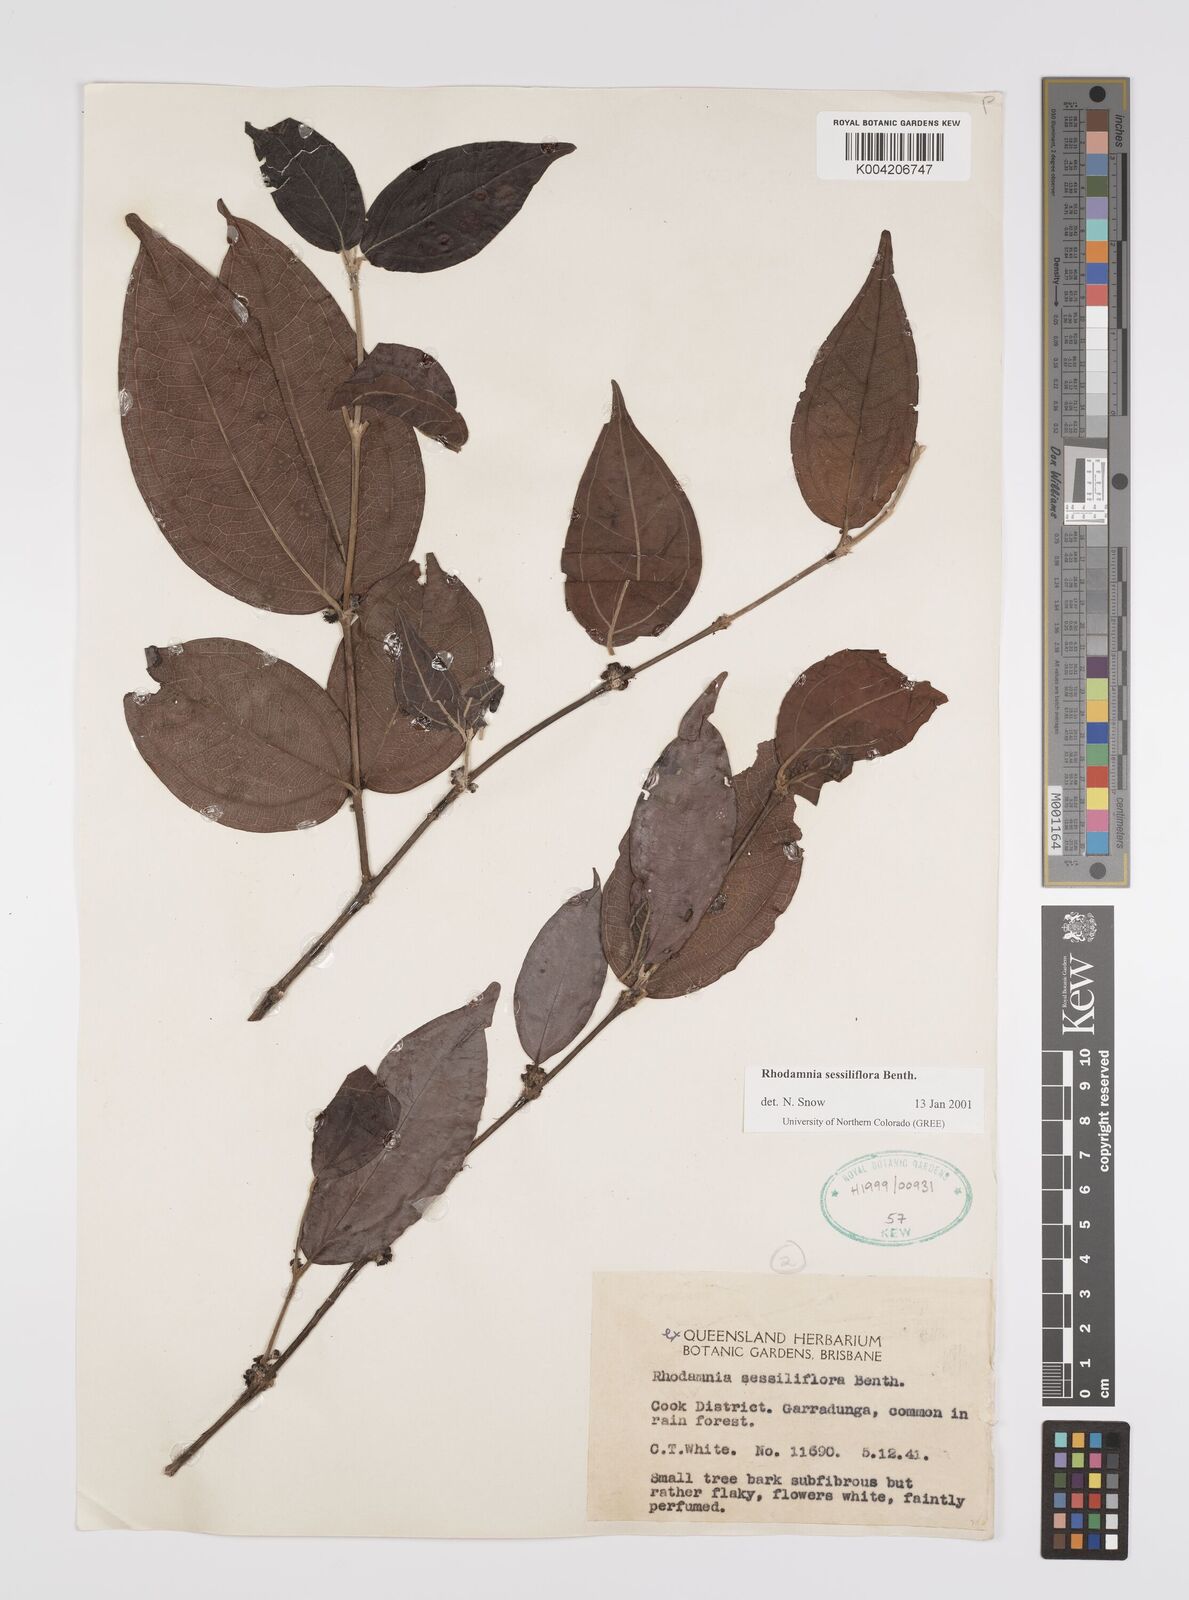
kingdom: Plantae
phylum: Tracheophyta
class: Magnoliopsida
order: Myrtales
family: Myrtaceae
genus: Rhodamnia
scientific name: Rhodamnia sessiliflora
